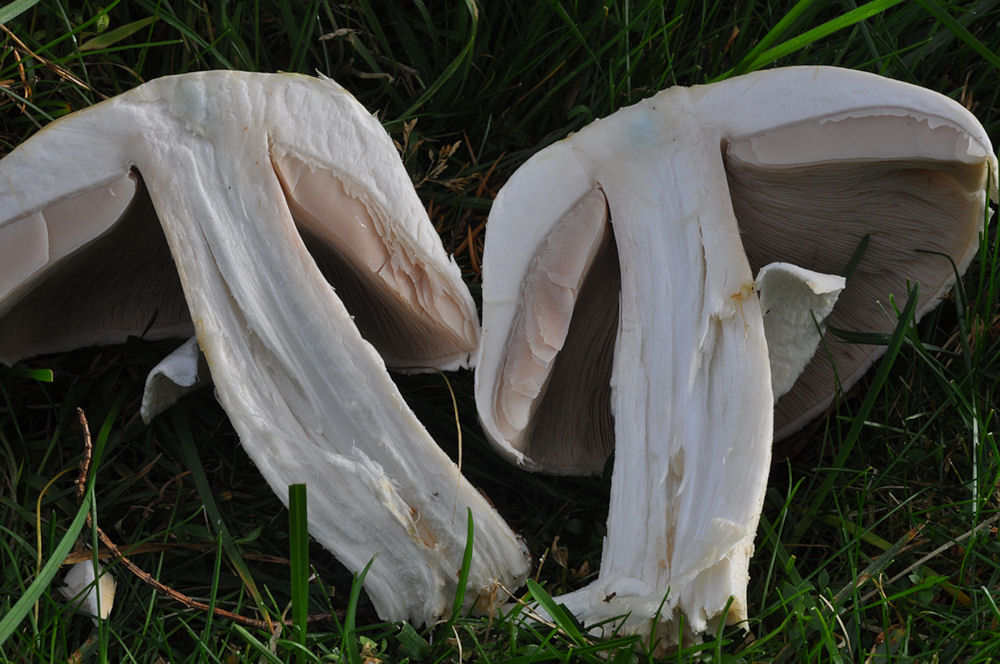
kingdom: Fungi
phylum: Basidiomycota
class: Agaricomycetes
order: Agaricales
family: Agaricaceae
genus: Agaricus
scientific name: Agaricus arvensis
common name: ager-champignon
